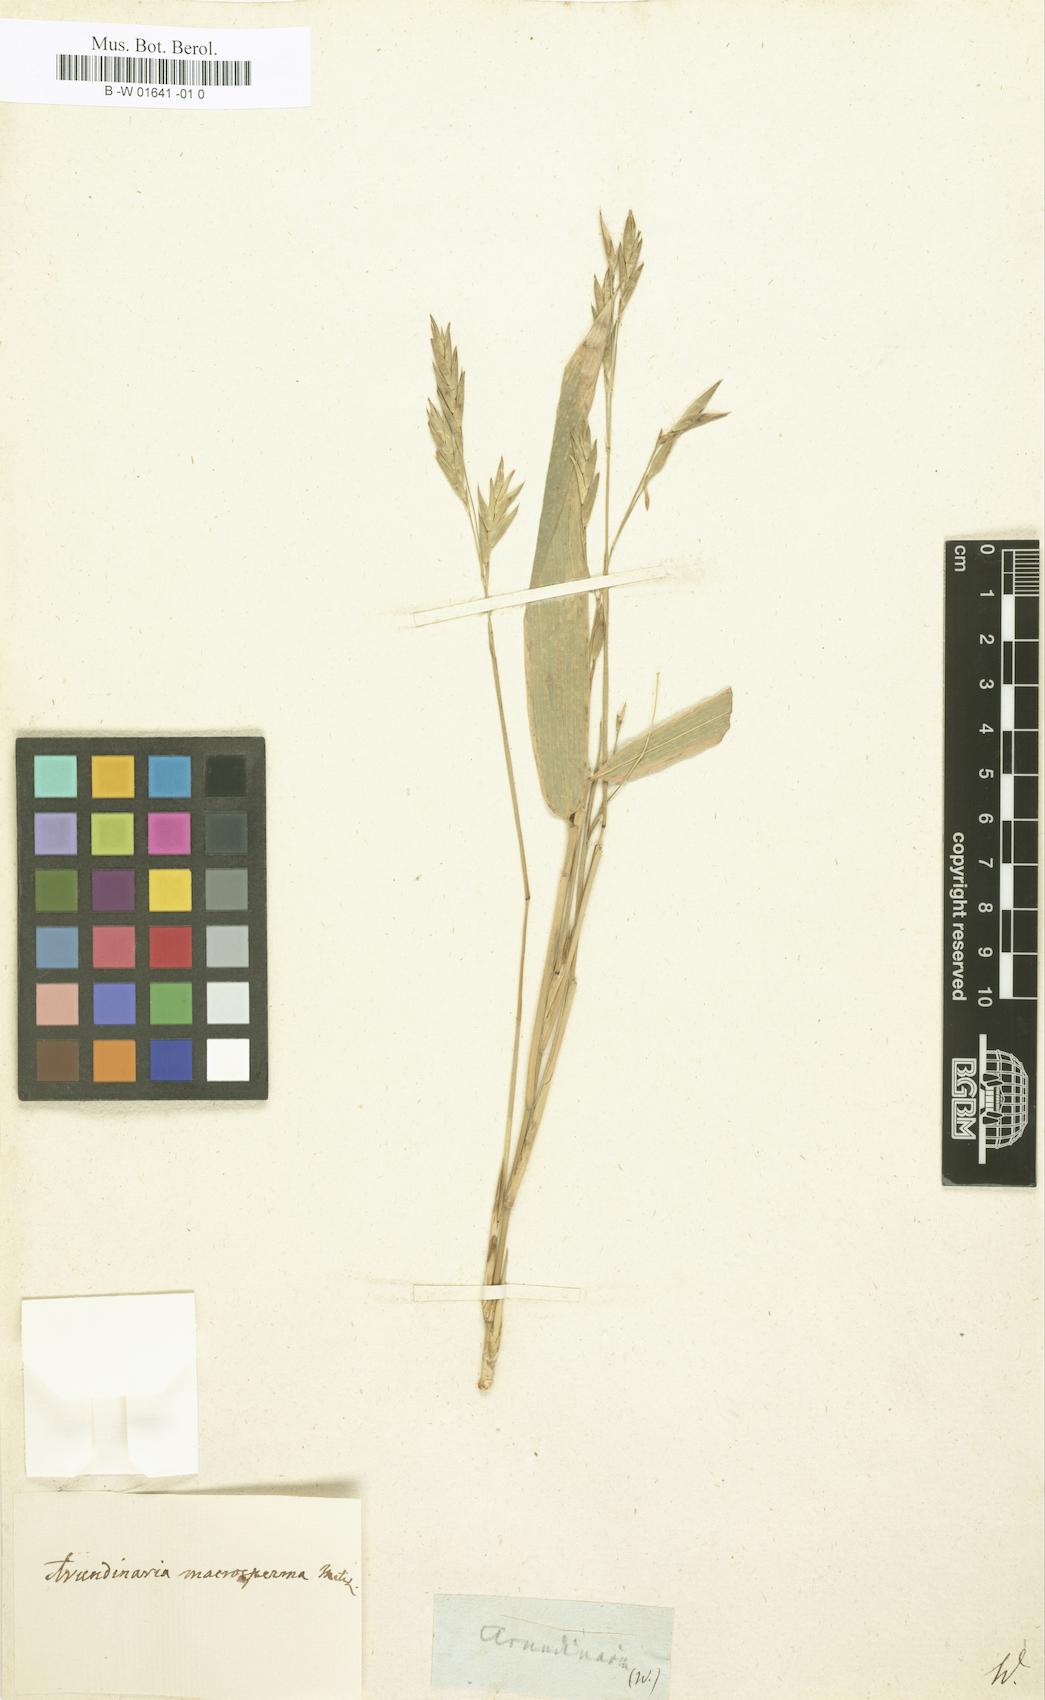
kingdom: Plantae
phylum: Tracheophyta
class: Liliopsida
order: Poales
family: Poaceae
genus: Arundinaria
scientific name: Arundinaria
